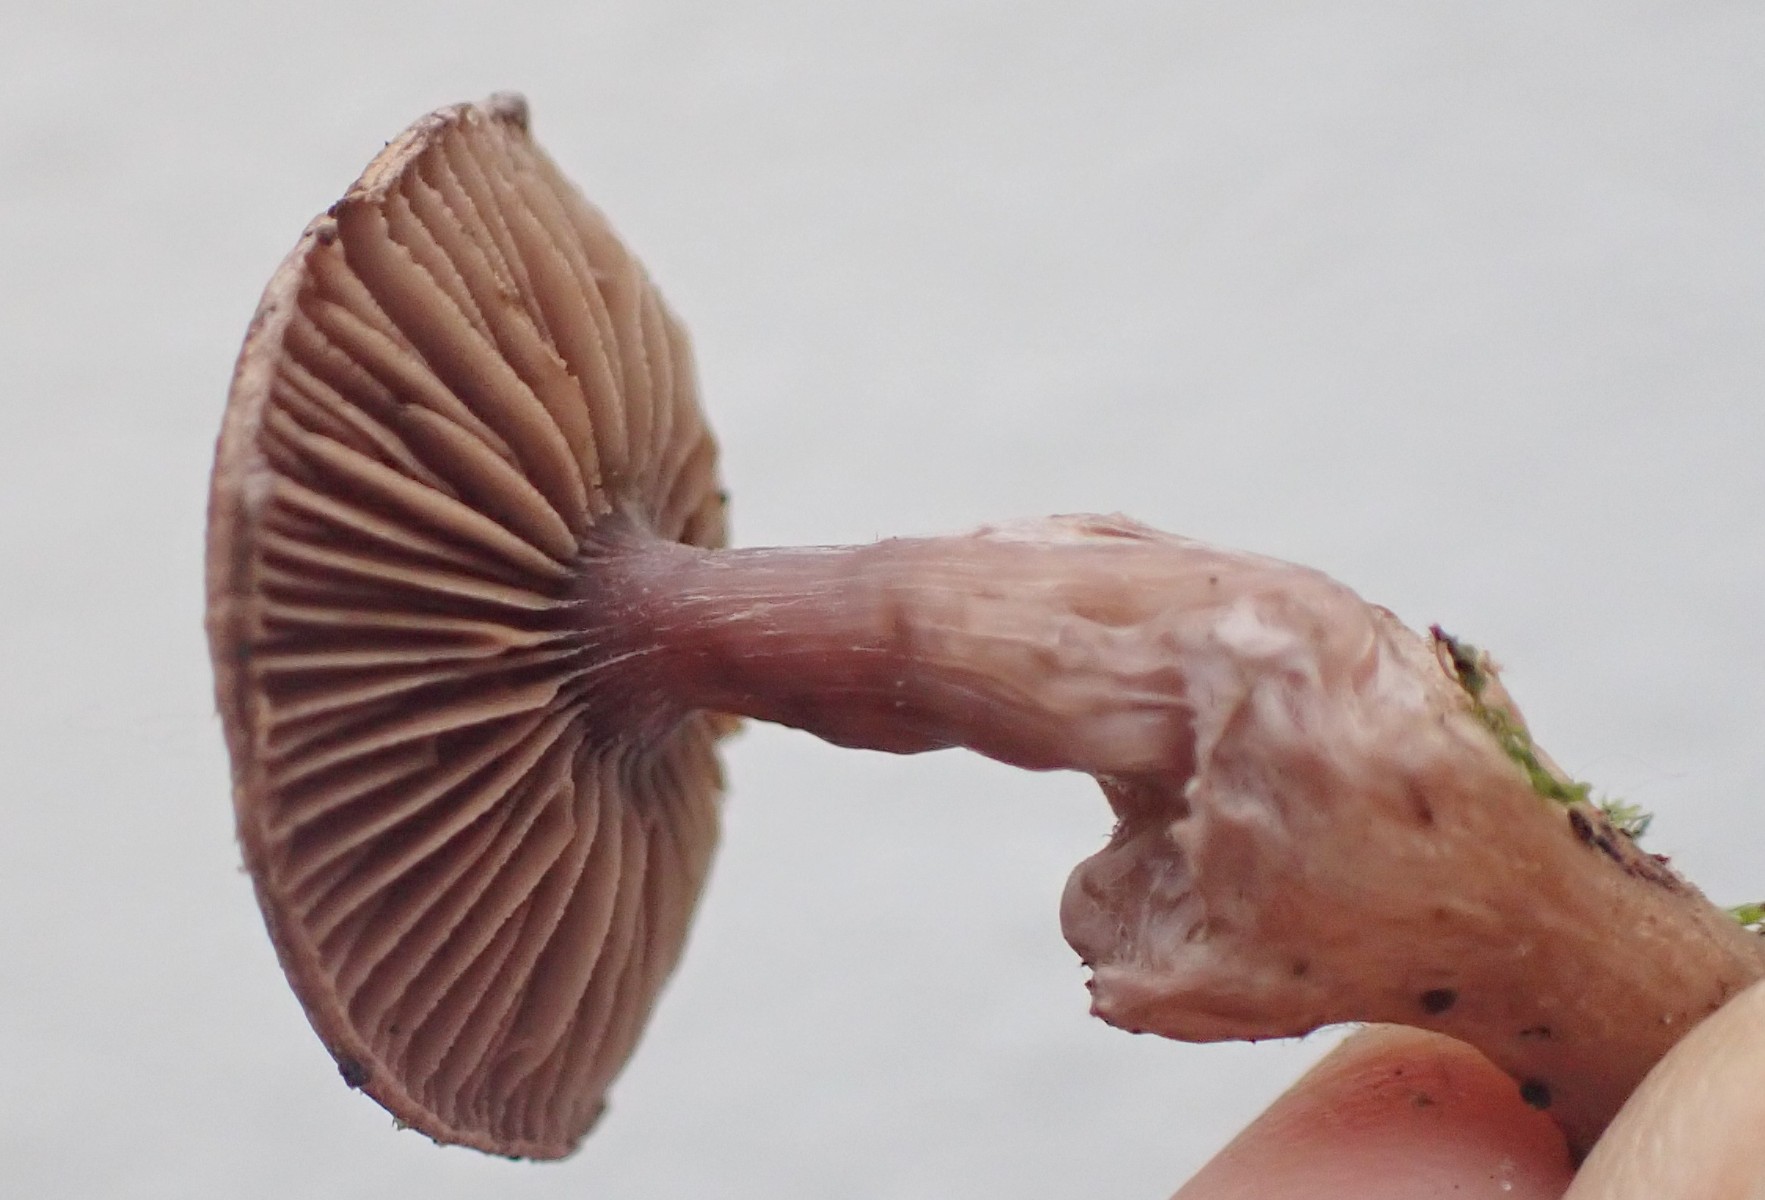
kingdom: Fungi
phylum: Basidiomycota
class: Agaricomycetes
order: Agaricales
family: Inocybaceae
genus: Inocybe
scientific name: Inocybe griseolilacina
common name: lillagrå trævlhat
